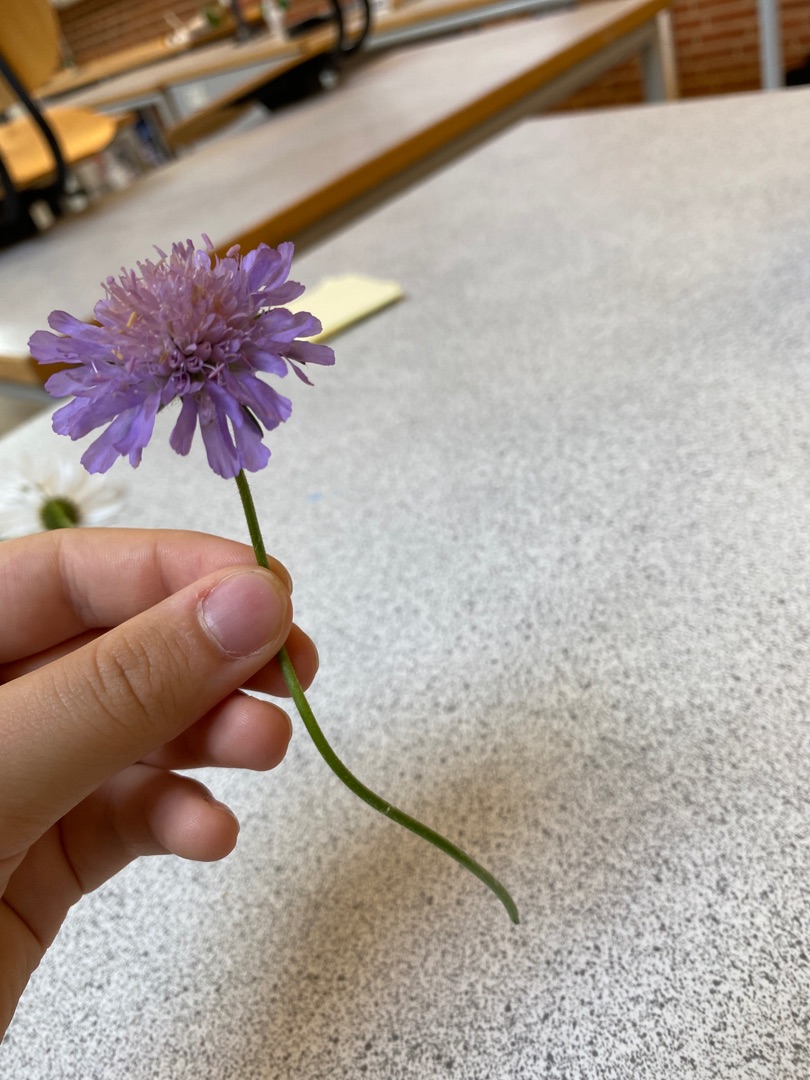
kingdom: Plantae
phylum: Tracheophyta
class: Magnoliopsida
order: Dipsacales
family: Caprifoliaceae
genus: Knautia
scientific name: Knautia arvensis
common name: Blåhat
